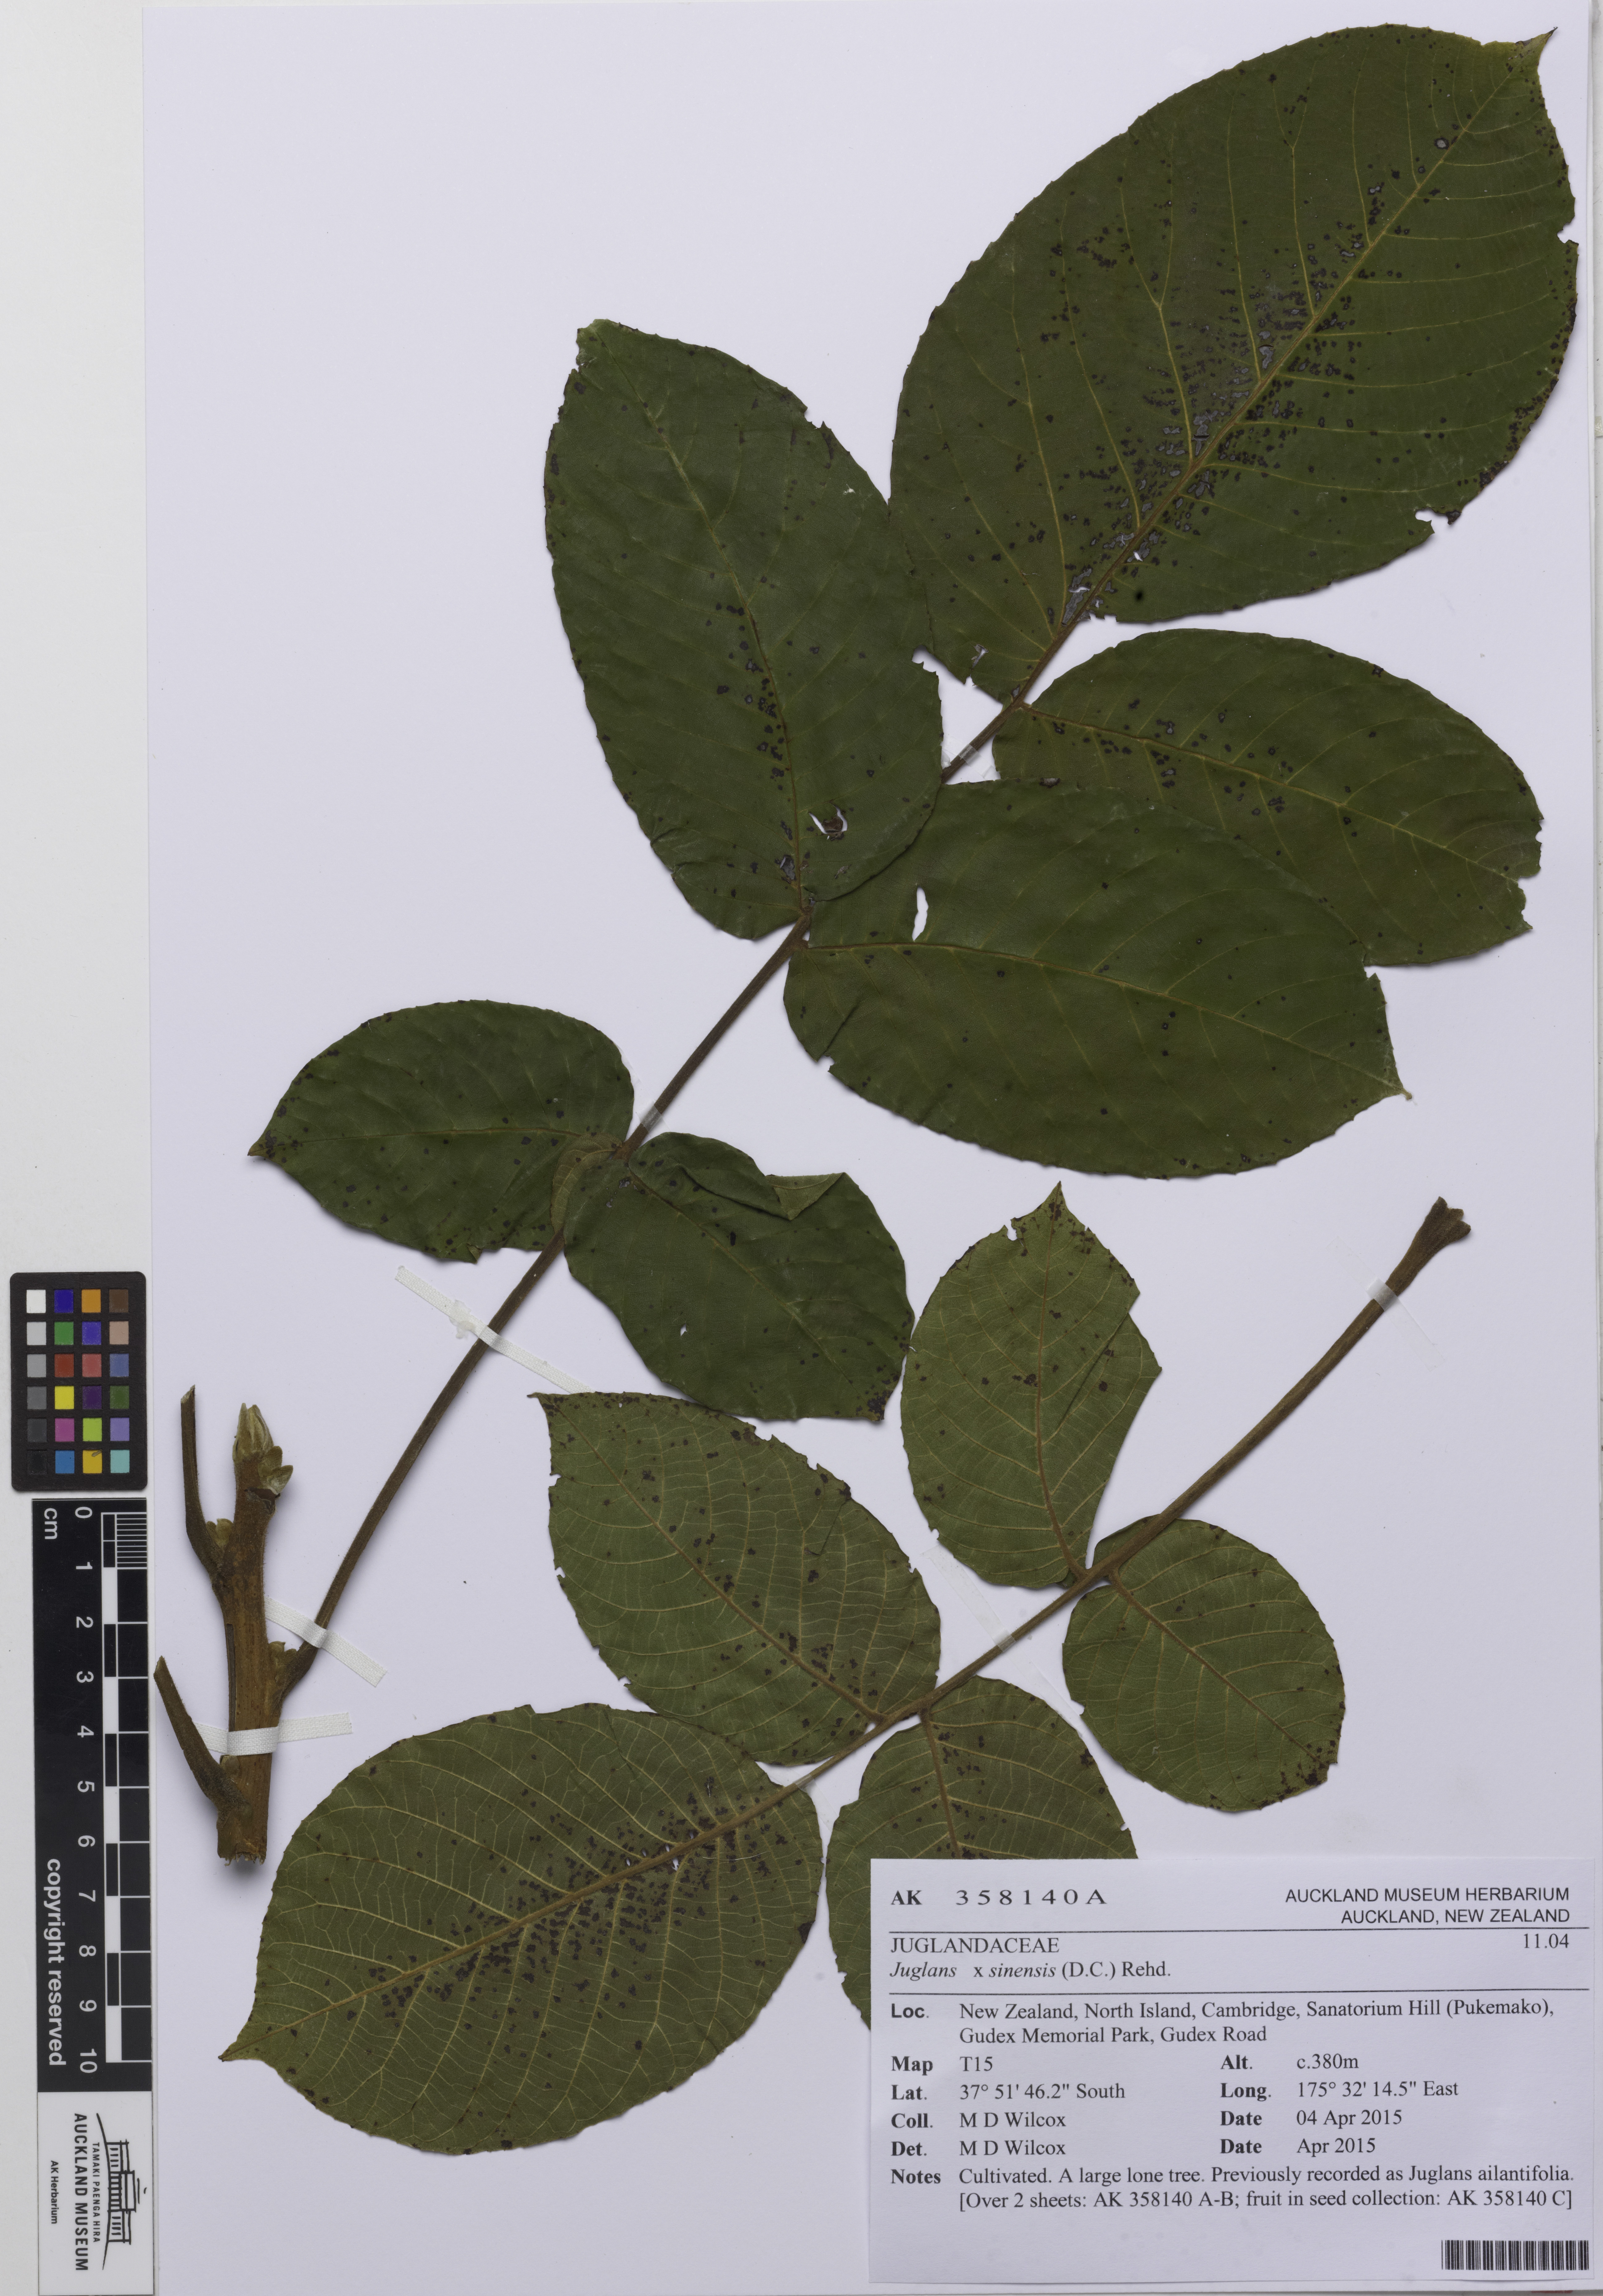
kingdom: Plantae
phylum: Tracheophyta
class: Magnoliopsida
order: Fagales
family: Juglandaceae
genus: Juglans
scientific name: Juglans regia
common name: Walnut
